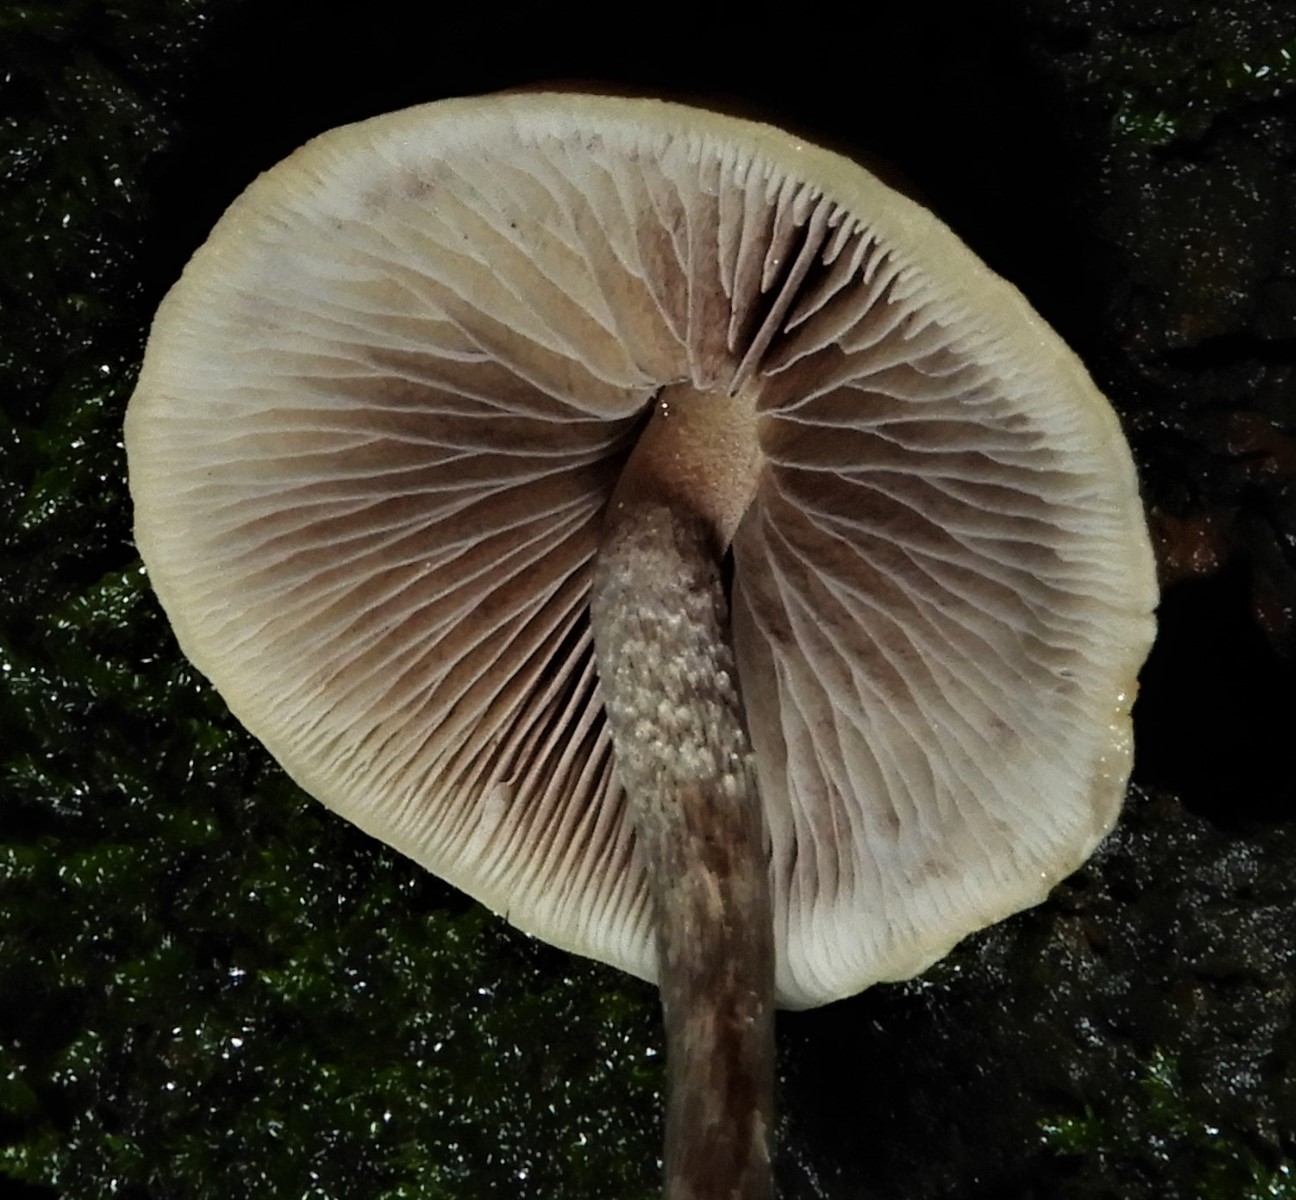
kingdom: Fungi
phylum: Basidiomycota
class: Agaricomycetes
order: Agaricales
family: Strophariaceae
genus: Hypholoma
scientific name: Hypholoma
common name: svovlhat
